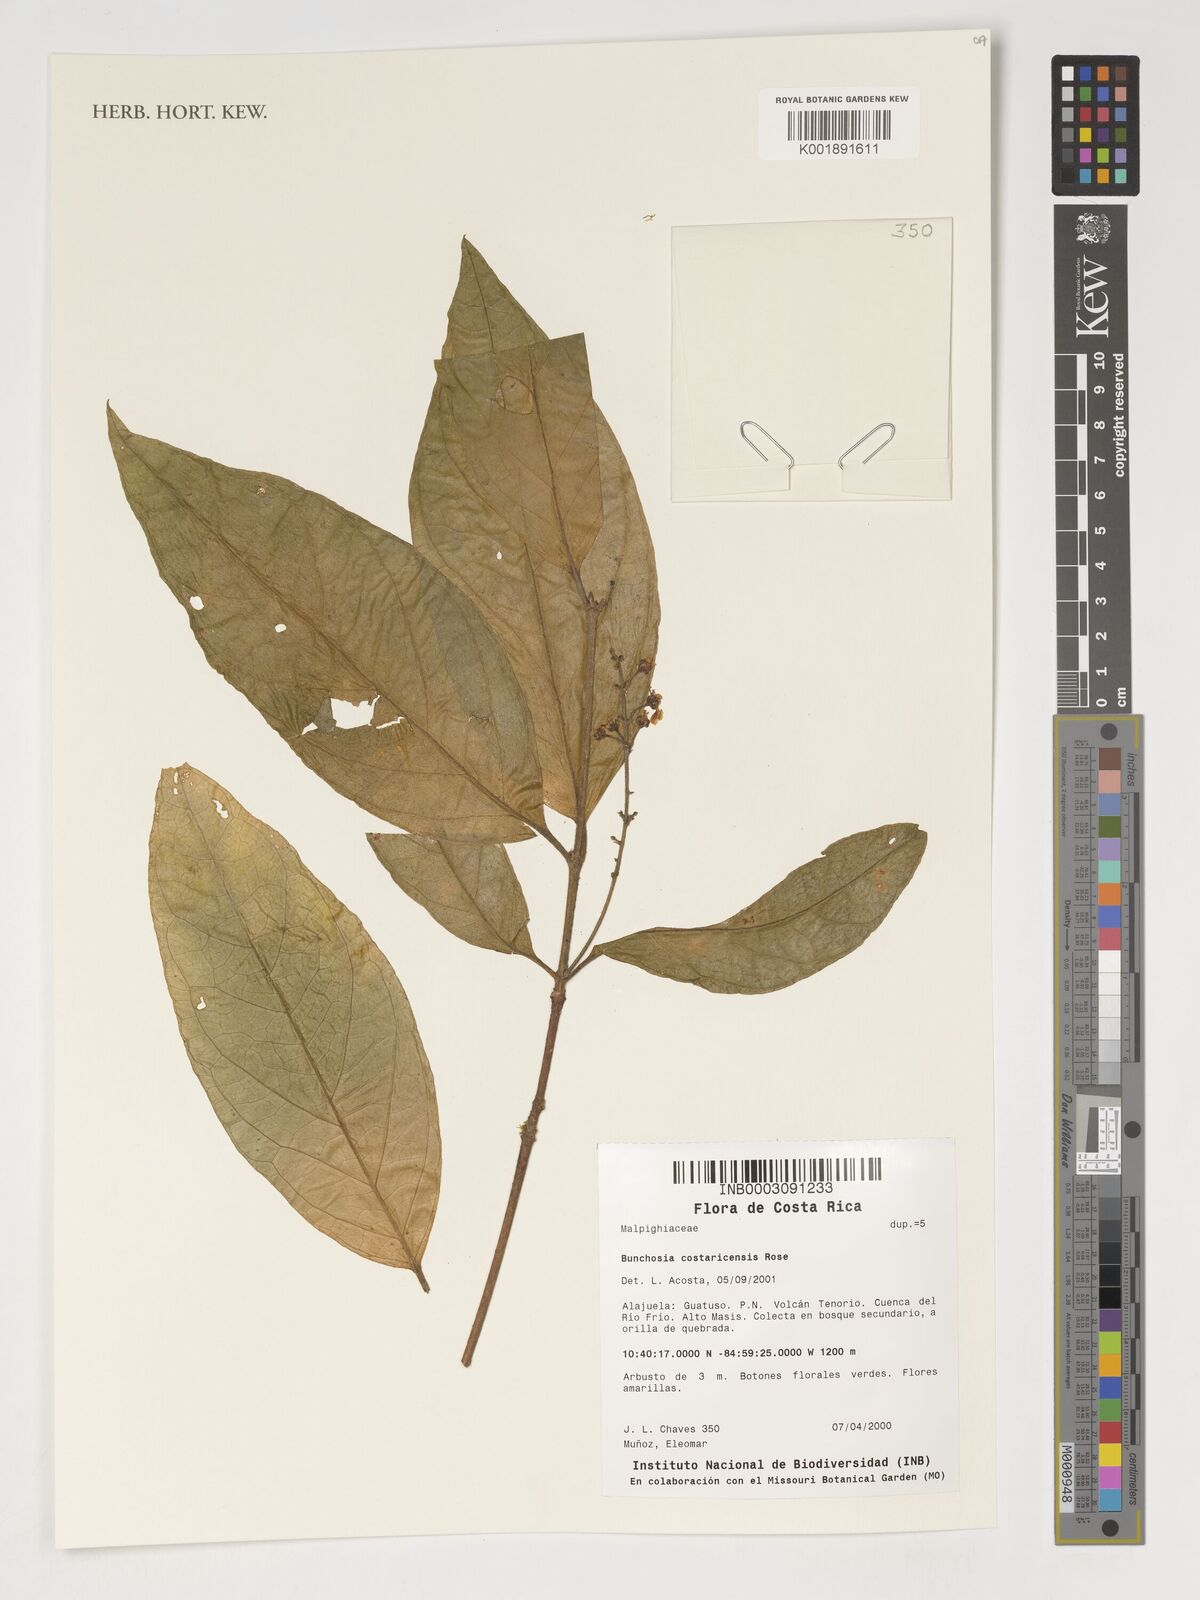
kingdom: Plantae
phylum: Tracheophyta
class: Magnoliopsida
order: Malpighiales
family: Malpighiaceae
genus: Bunchosia
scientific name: Bunchosia odorata
